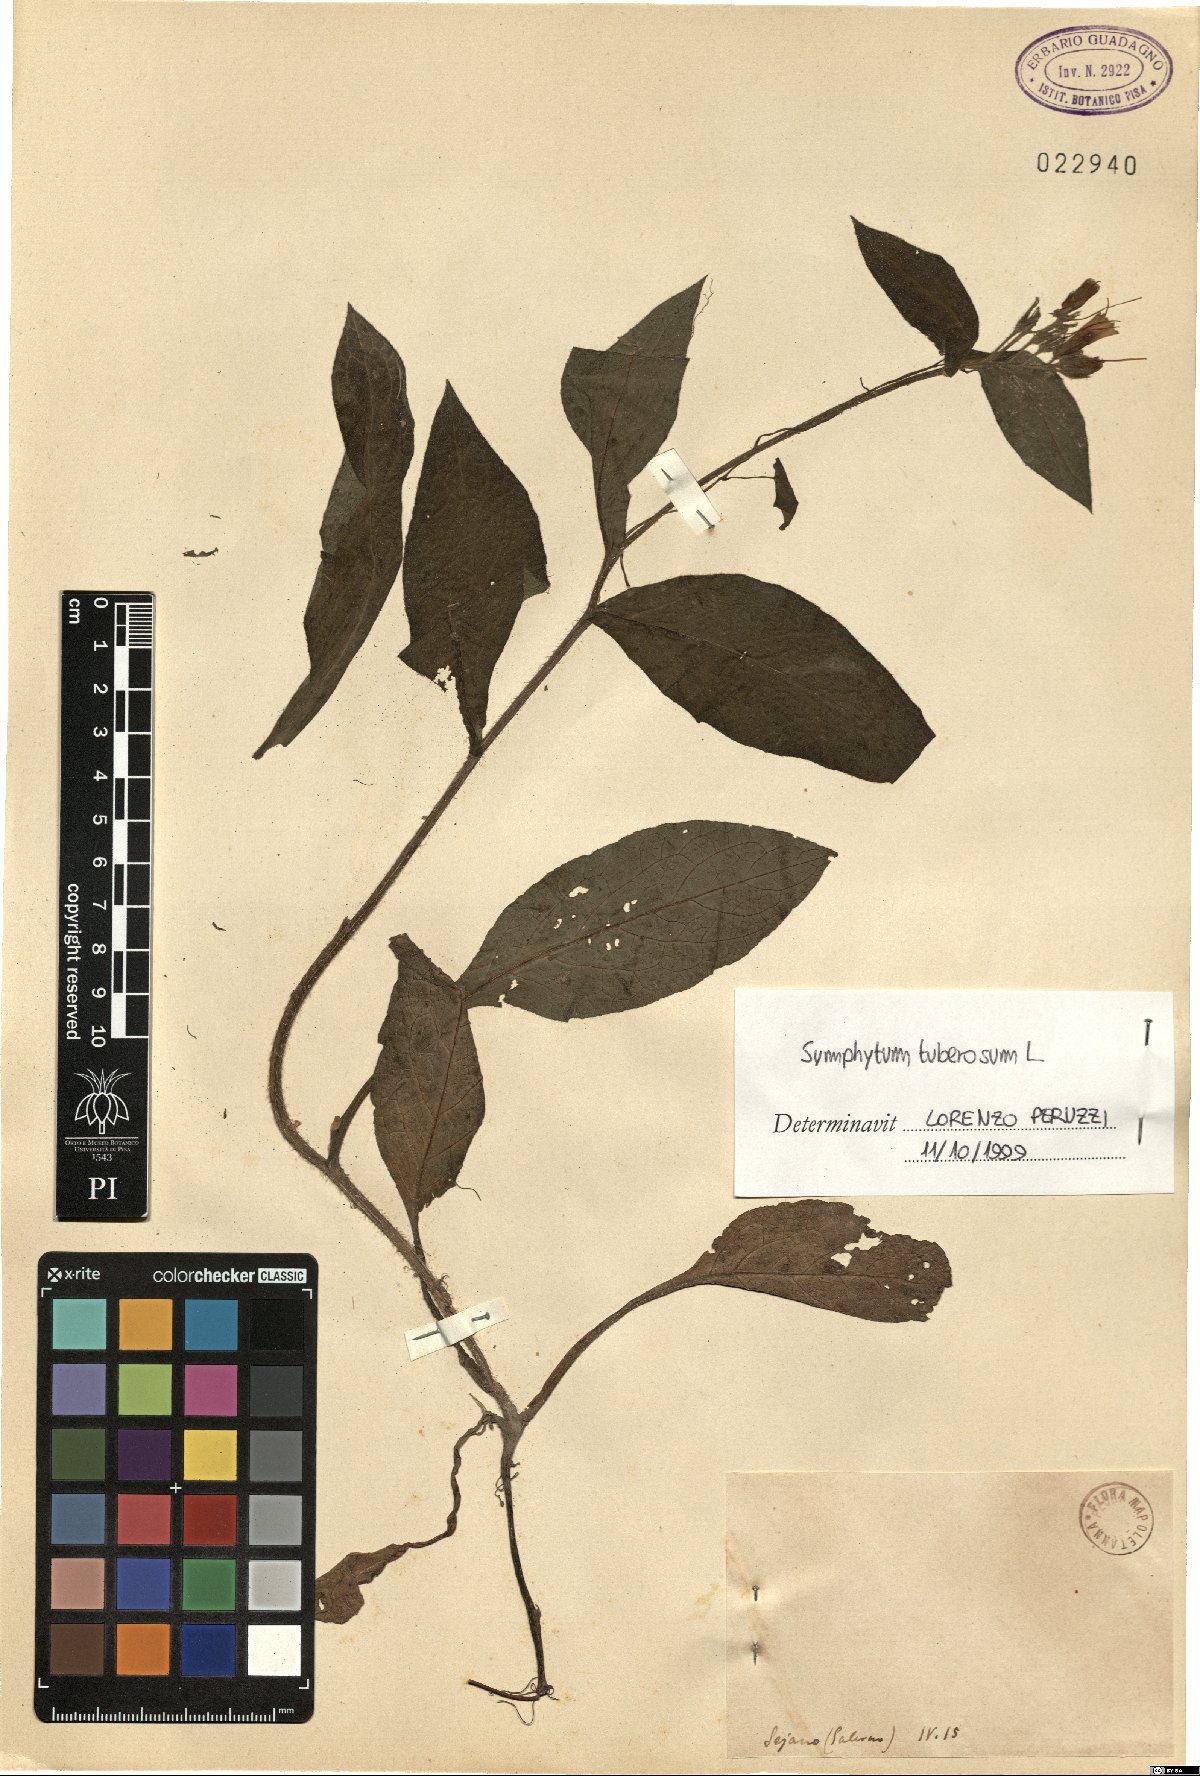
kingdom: Plantae
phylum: Tracheophyta
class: Magnoliopsida
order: Boraginales
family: Boraginaceae
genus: Symphytum
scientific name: Symphytum tuberosum
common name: Tuberous comfrey
